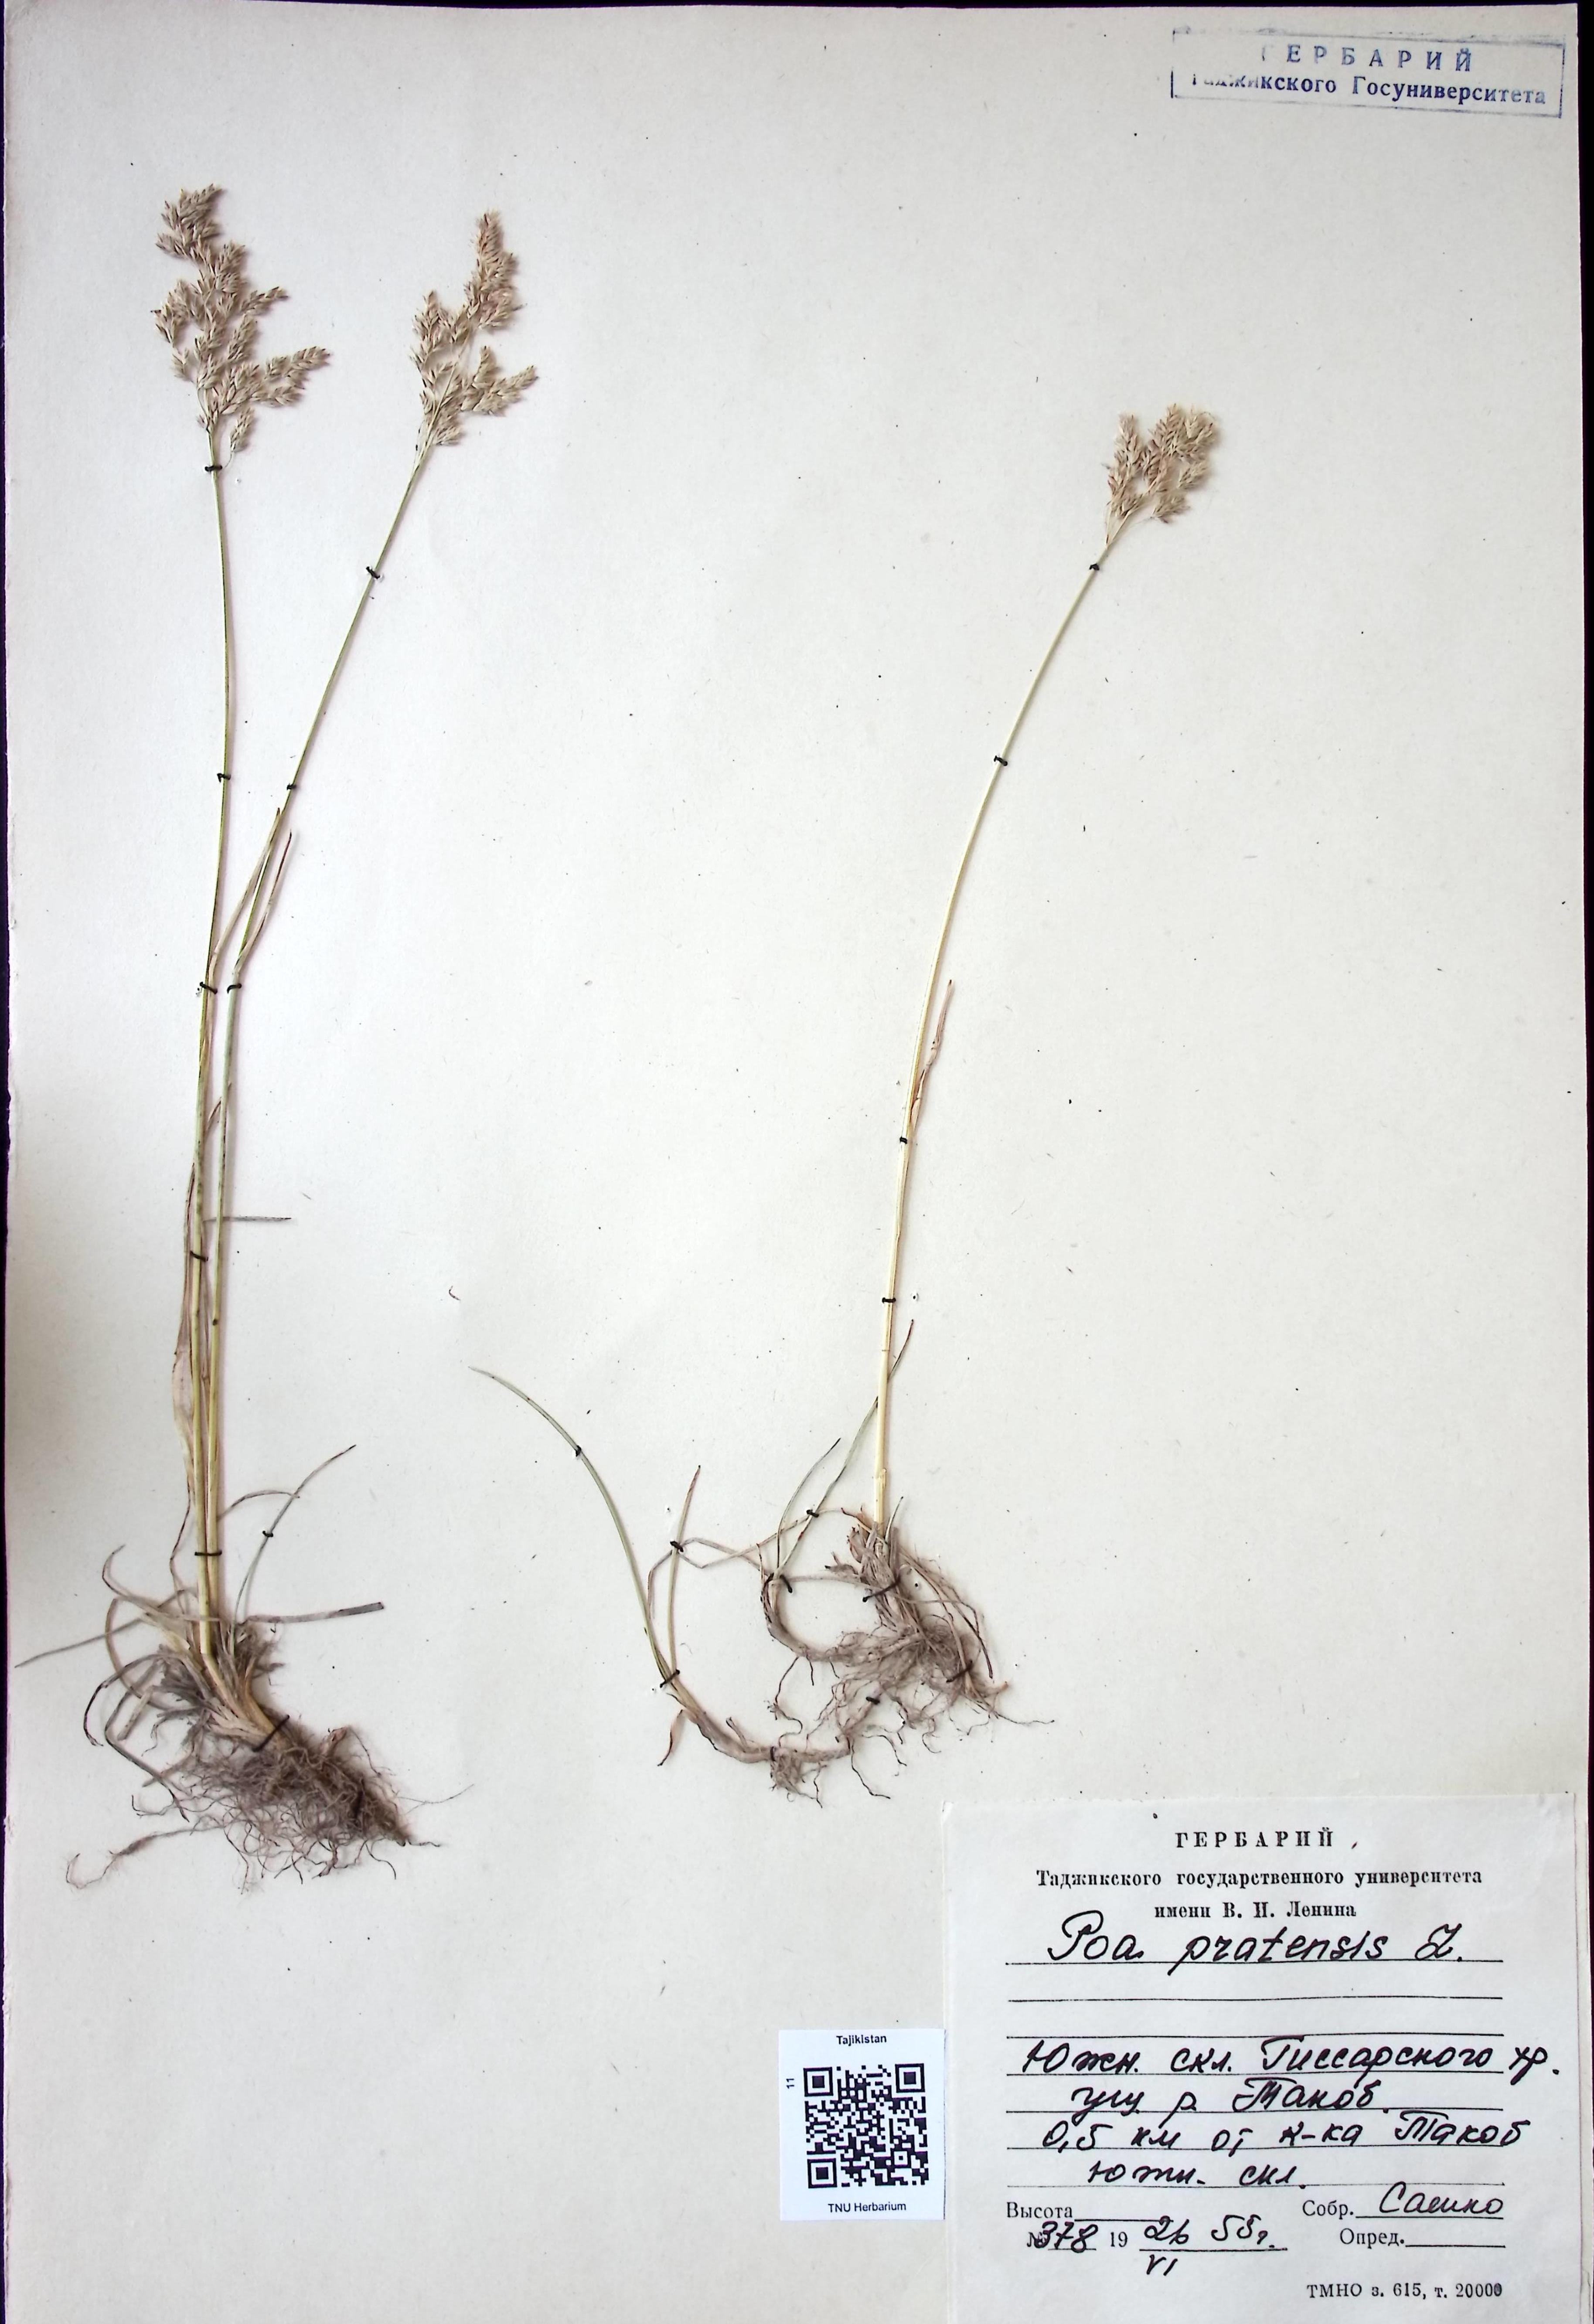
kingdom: Plantae
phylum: Tracheophyta
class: Liliopsida
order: Poales
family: Poaceae
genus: Poa
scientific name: Poa pratensis
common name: Kentucky bluegrass
